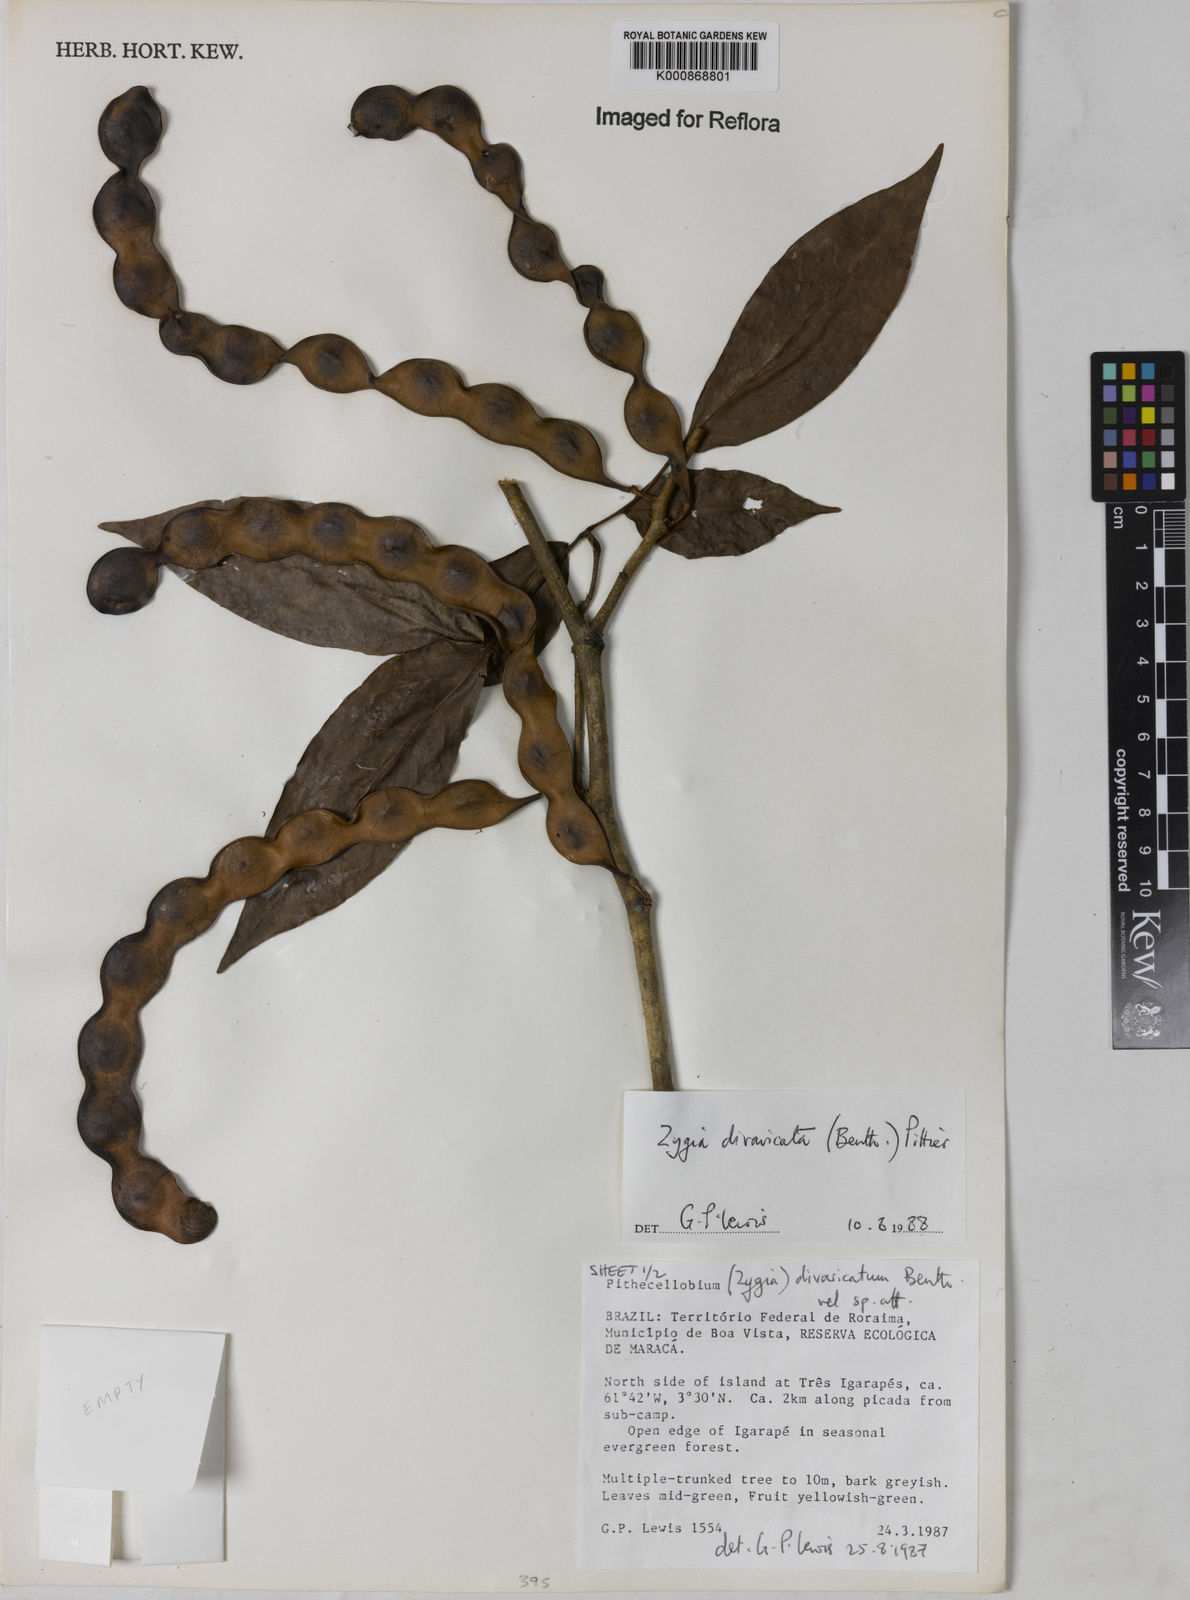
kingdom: Plantae
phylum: Tracheophyta
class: Magnoliopsida
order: Fabales
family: Fabaceae
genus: Zygia
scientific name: Zygia cataractae
